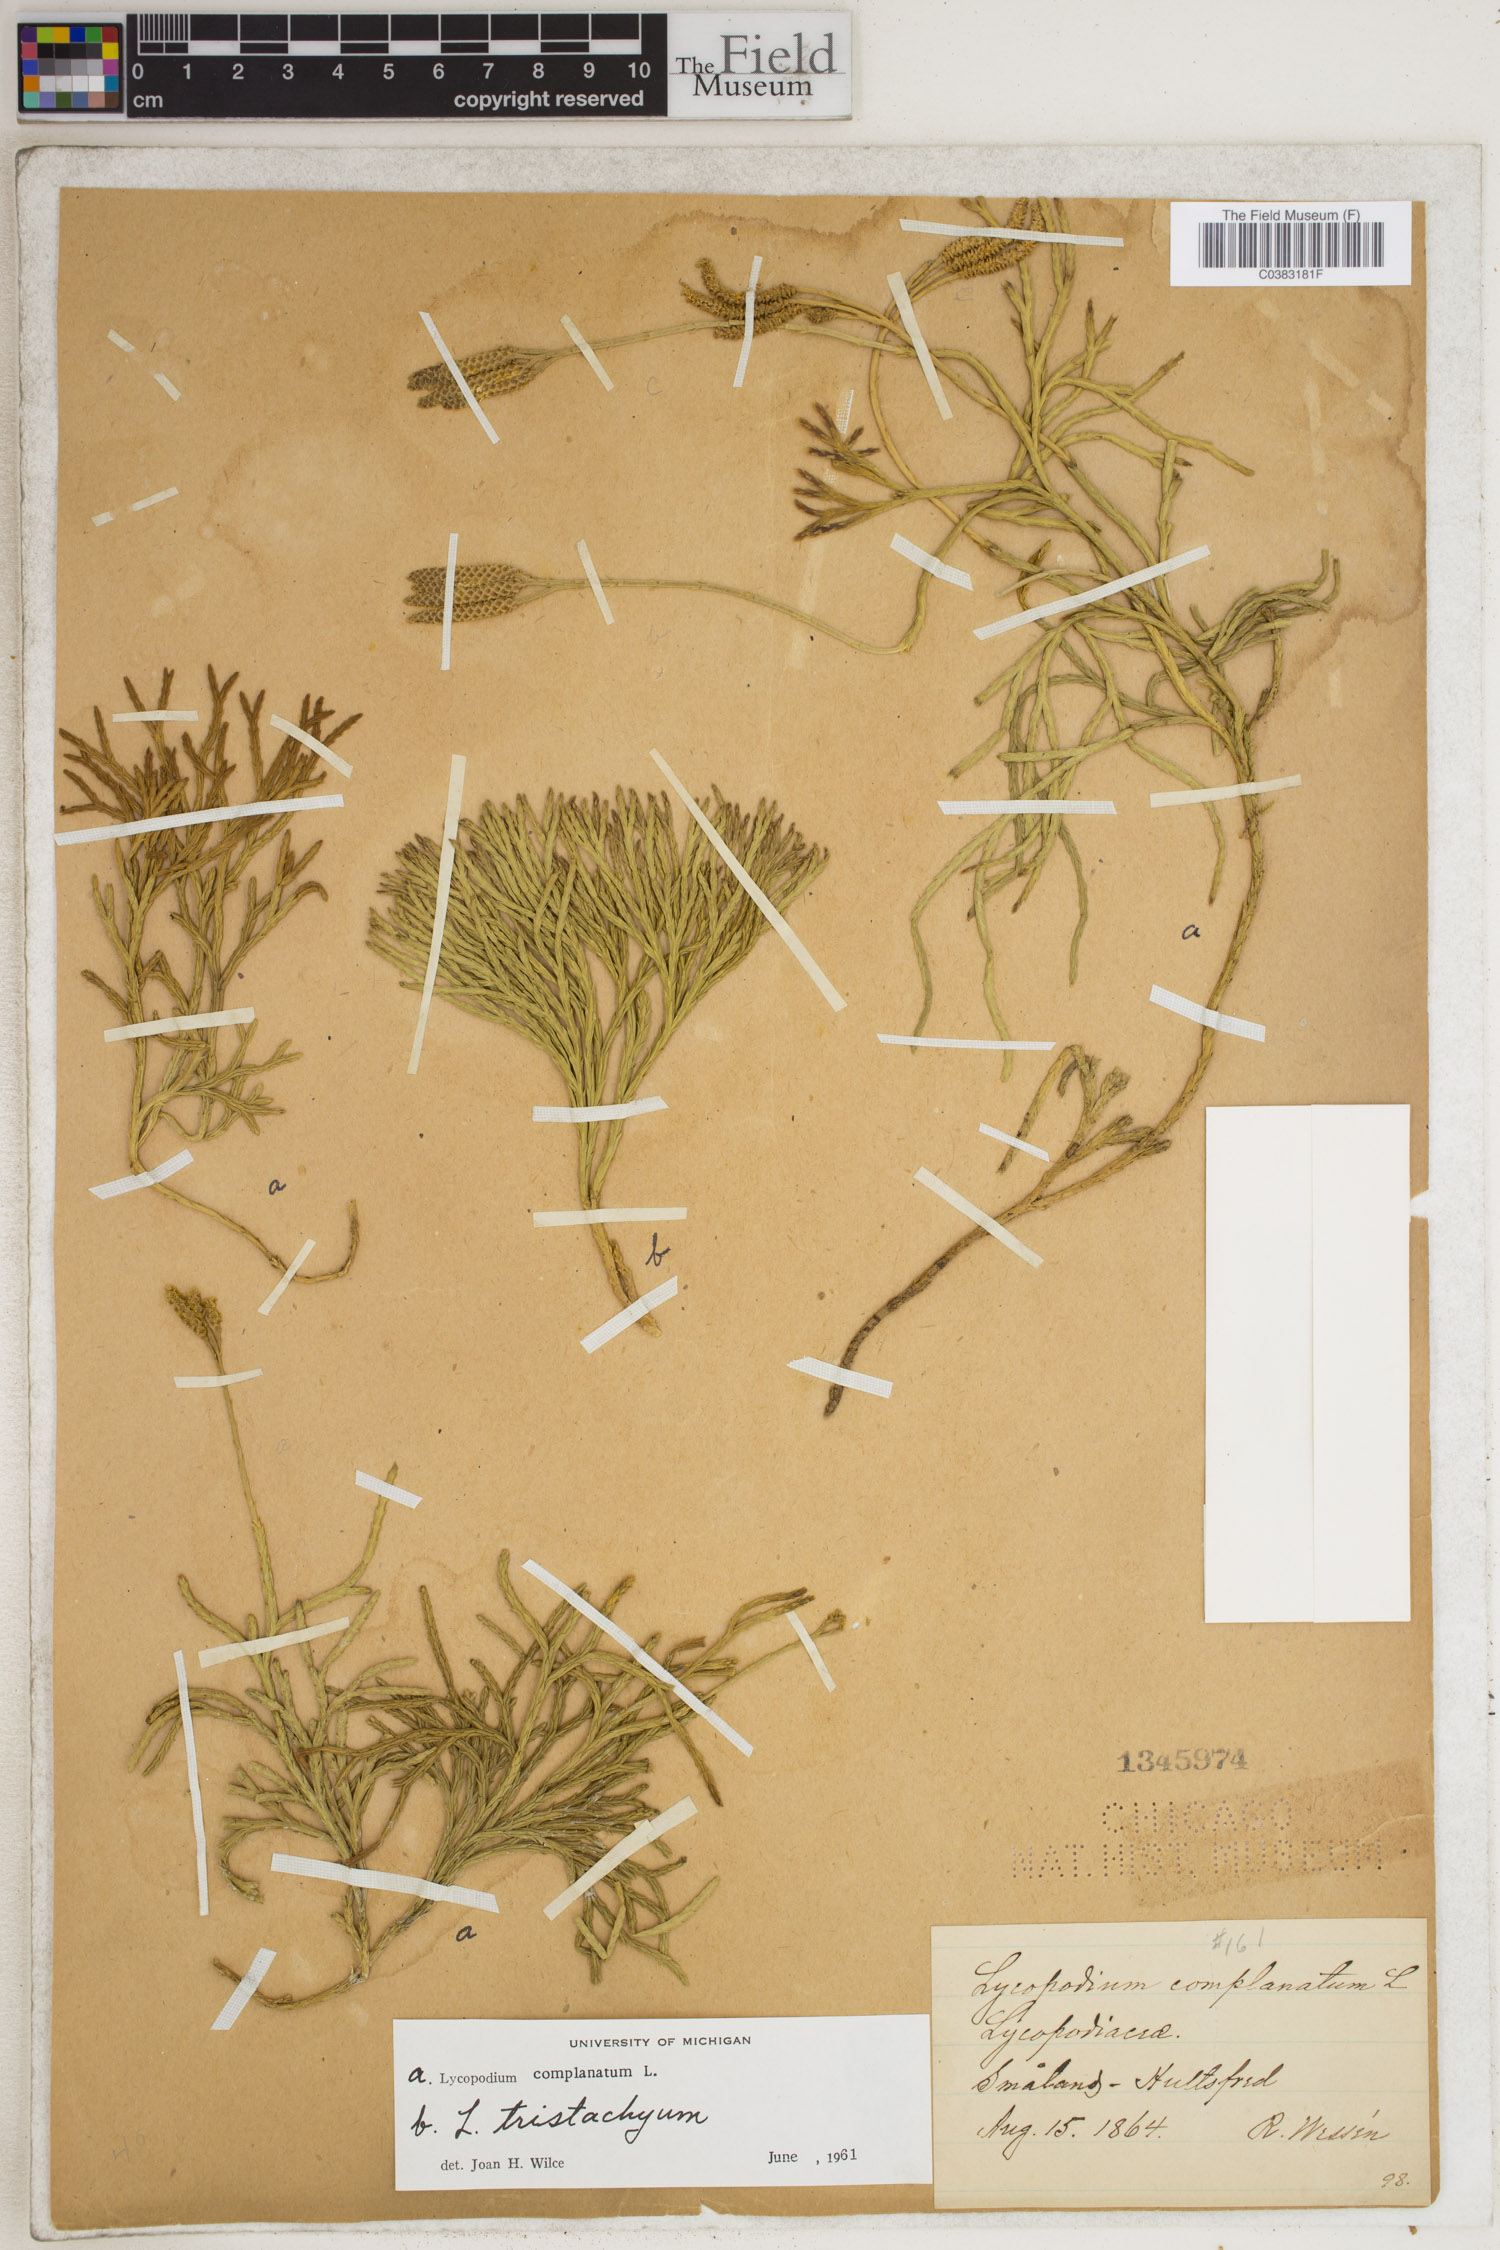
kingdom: Plantae
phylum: Tracheophyta
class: Lycopodiopsida
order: Lycopodiales
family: Lycopodiaceae
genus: Diphasiastrum
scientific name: Diphasiastrum complanatum
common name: Northern running-pine
